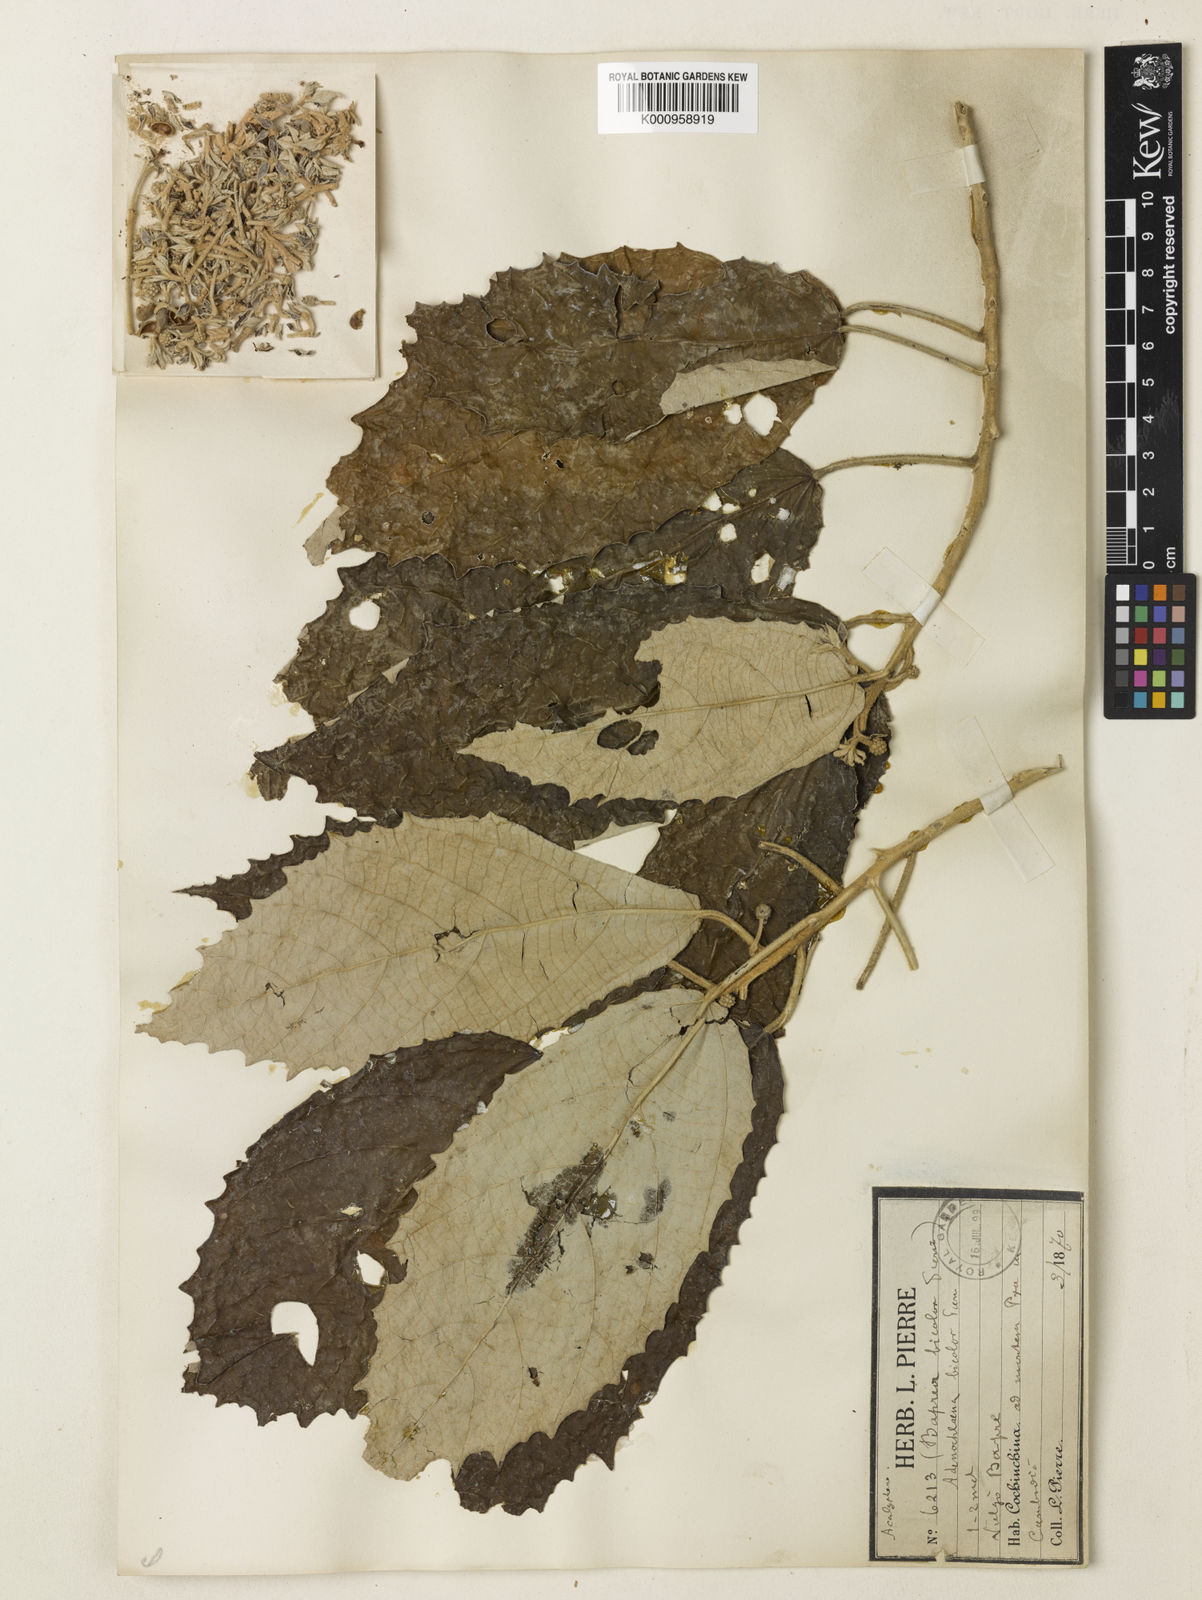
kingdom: Plantae
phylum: Tracheophyta
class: Magnoliopsida
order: Malpighiales
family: Euphorbiaceae
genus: Cladogynos
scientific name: Cladogynos orientalis
